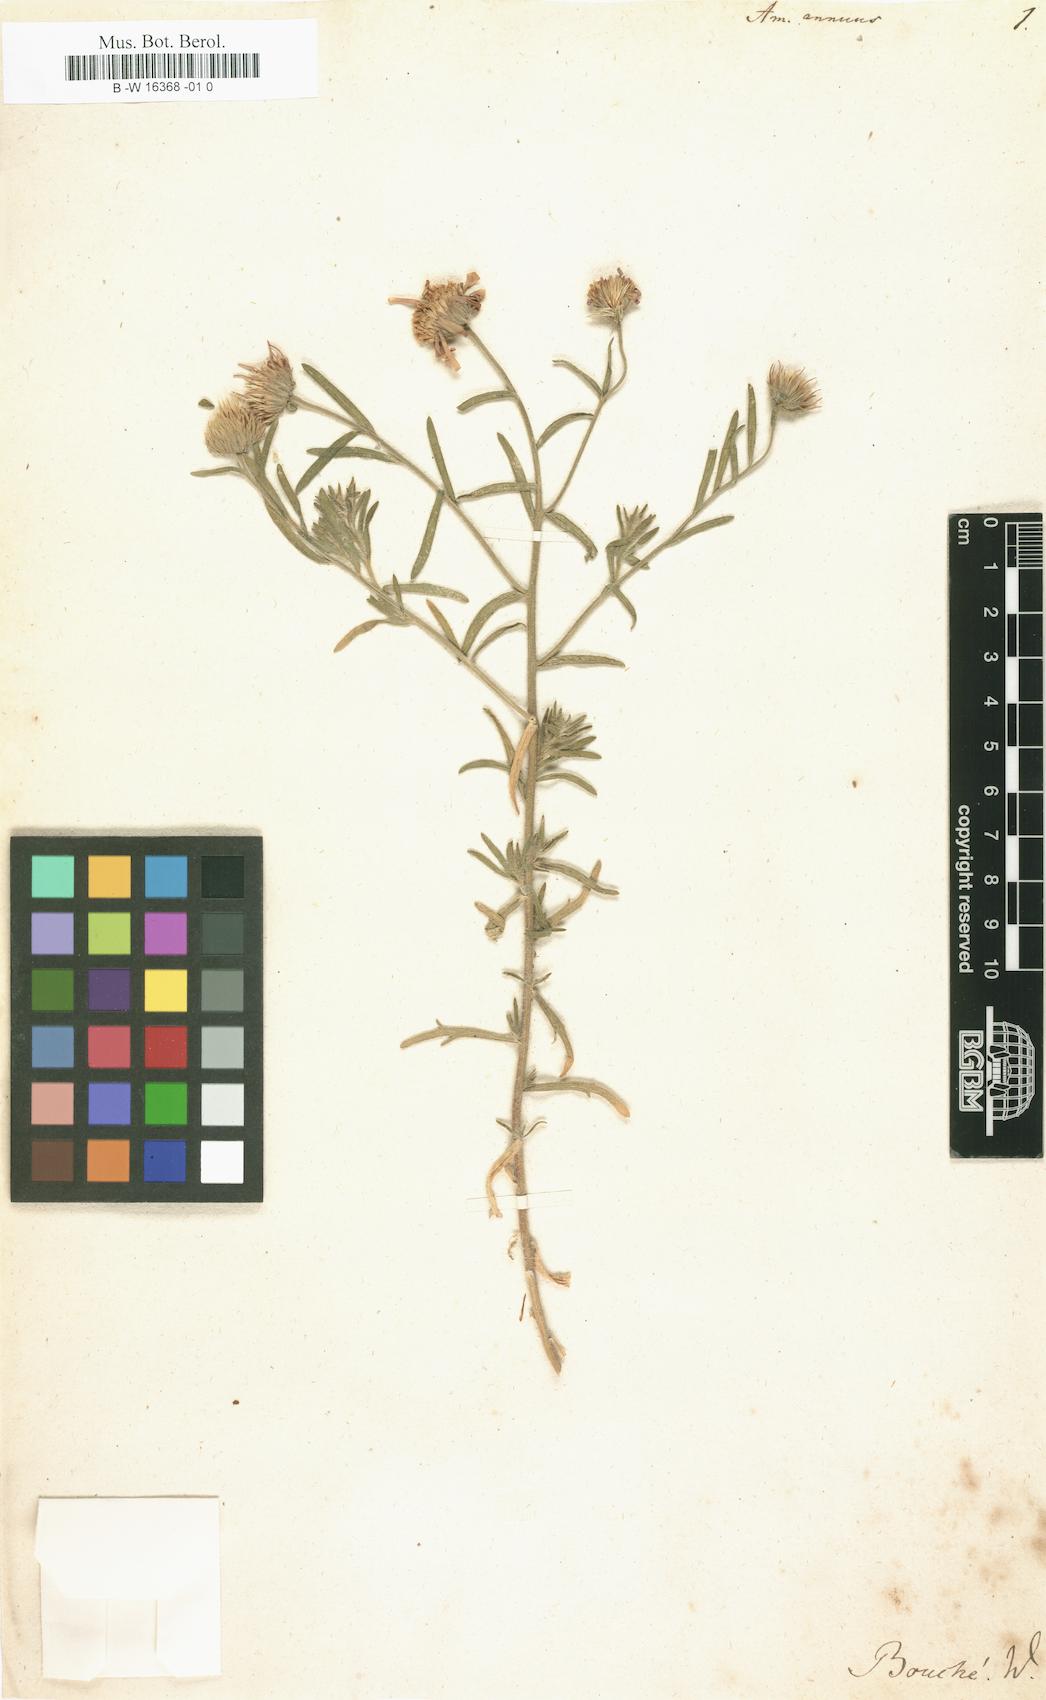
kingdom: Plantae
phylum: Tracheophyta
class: Magnoliopsida
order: Asterales
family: Asteraceae
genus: Amellus
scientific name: Amellus strigosus
